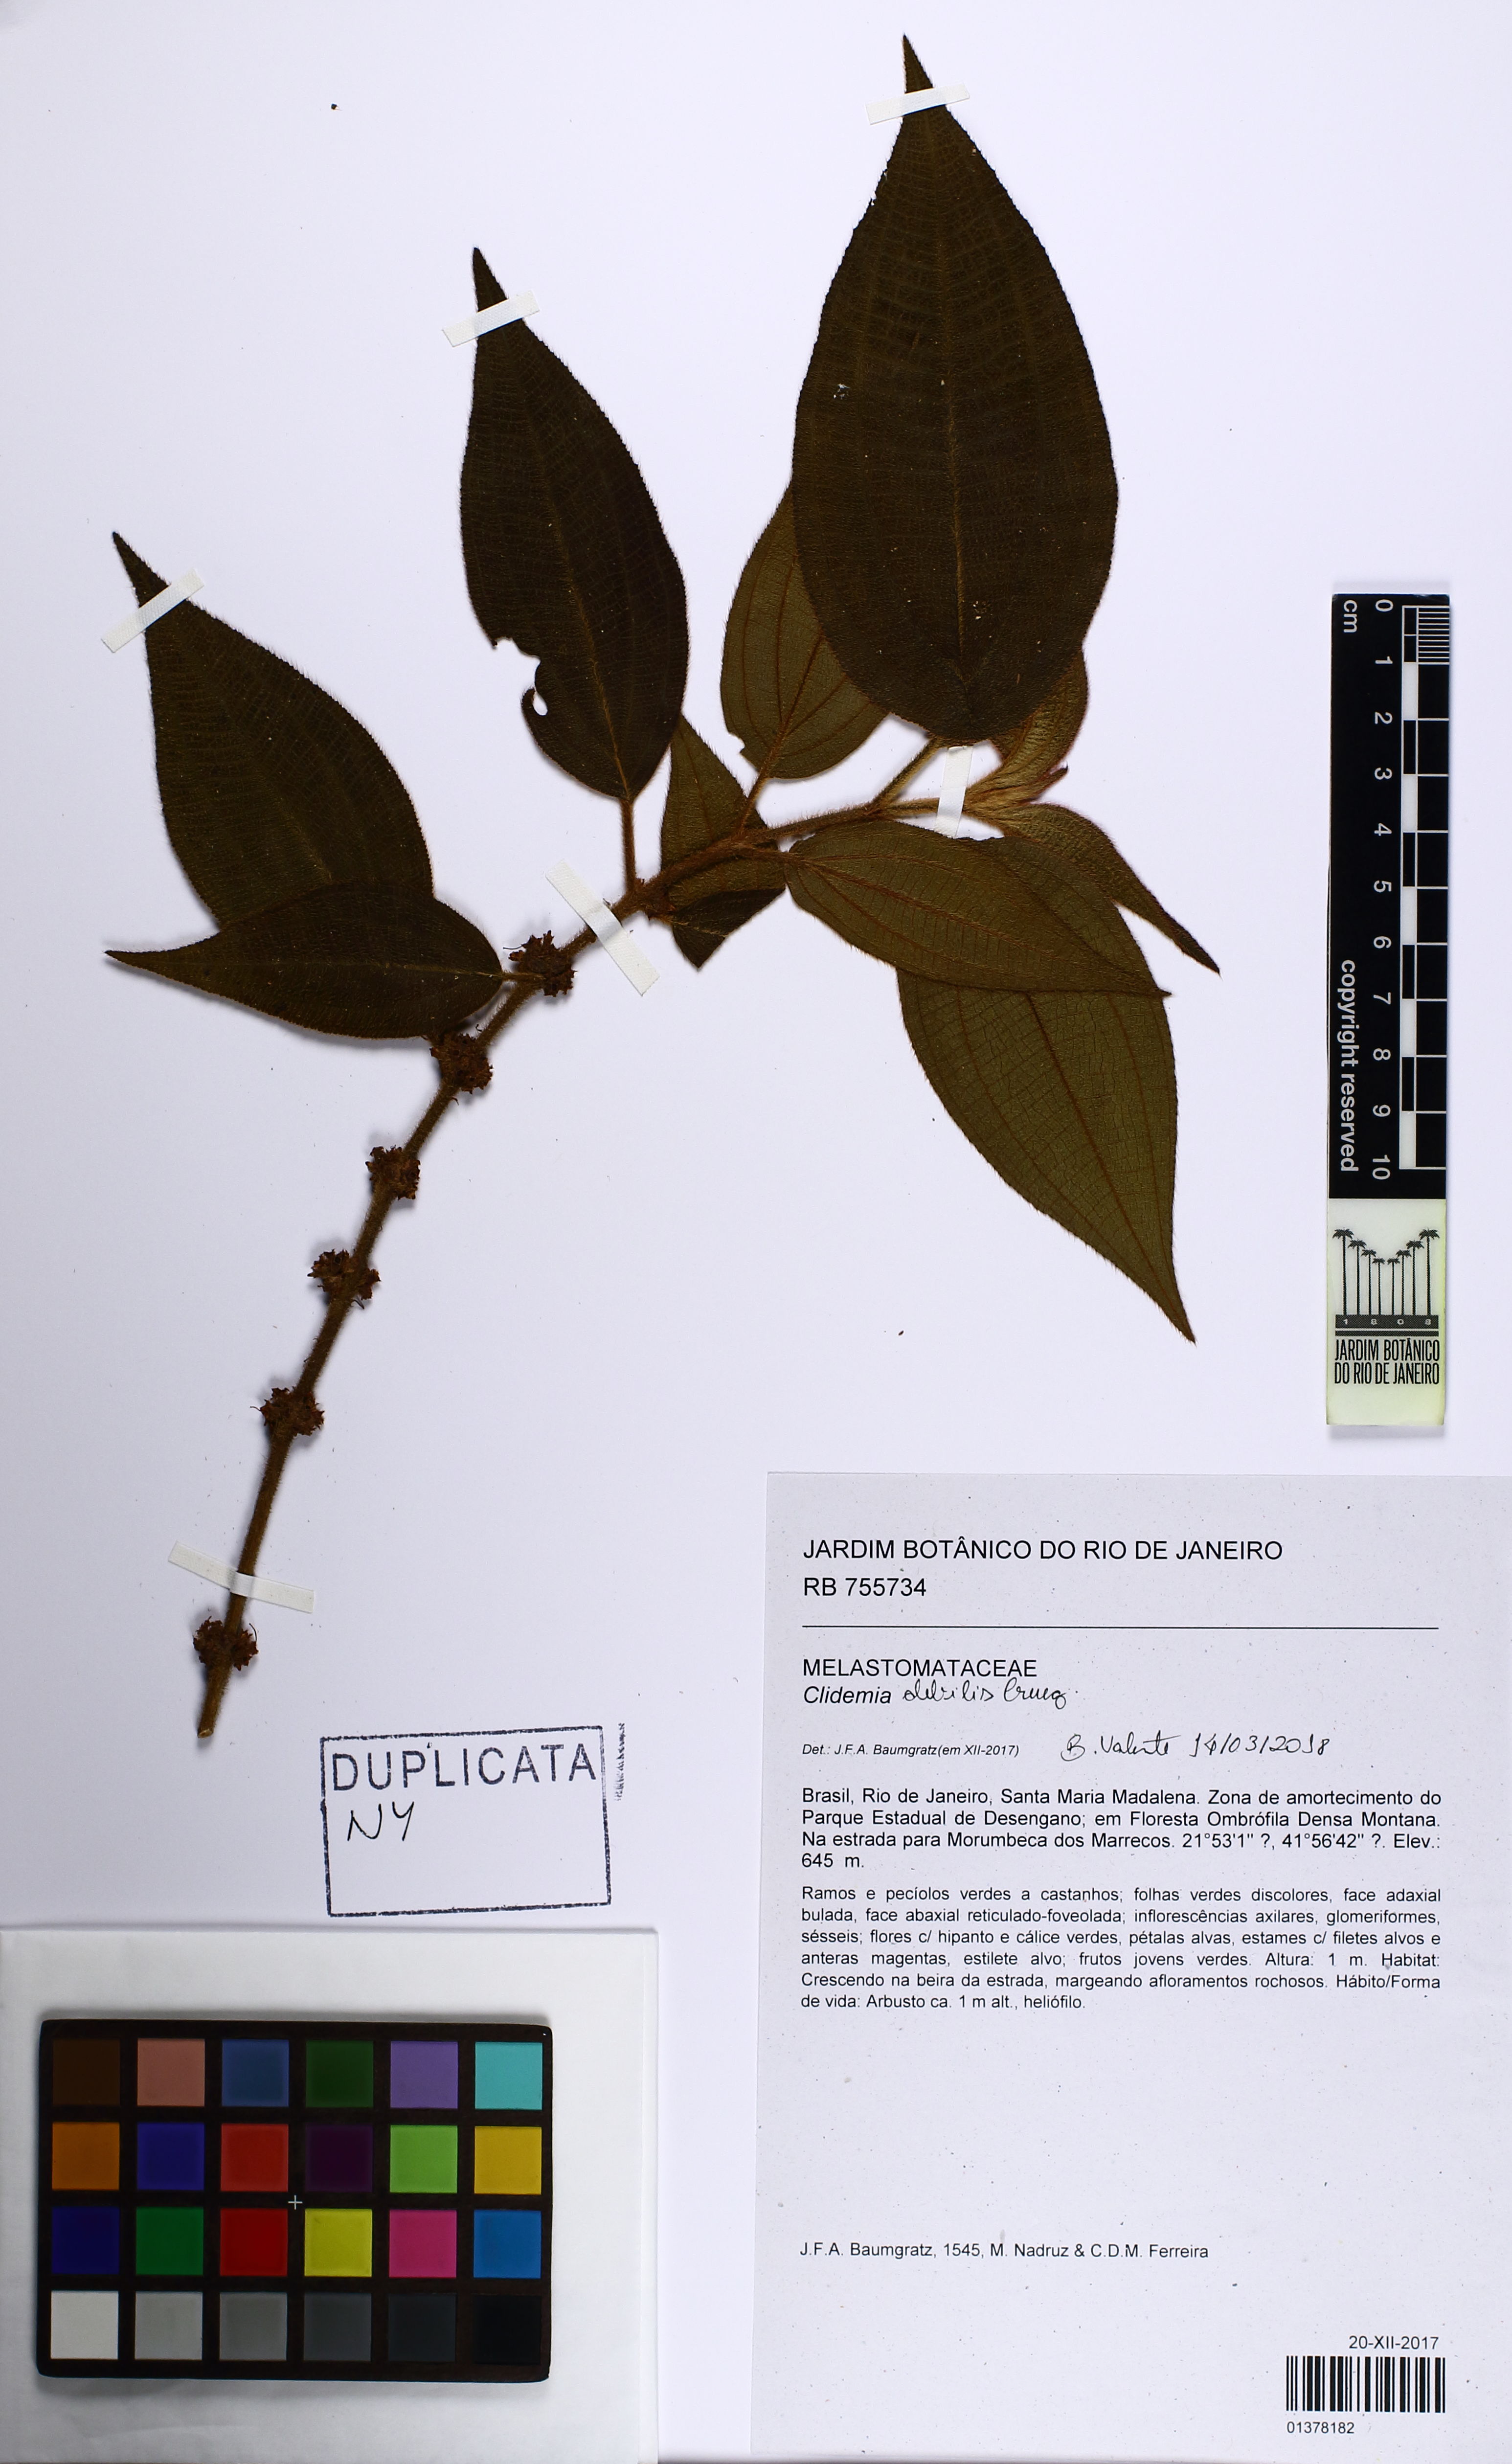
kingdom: Plantae
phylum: Tracheophyta
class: Magnoliopsida
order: Myrtales
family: Melastomataceae
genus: Miconia
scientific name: Miconia debilis
